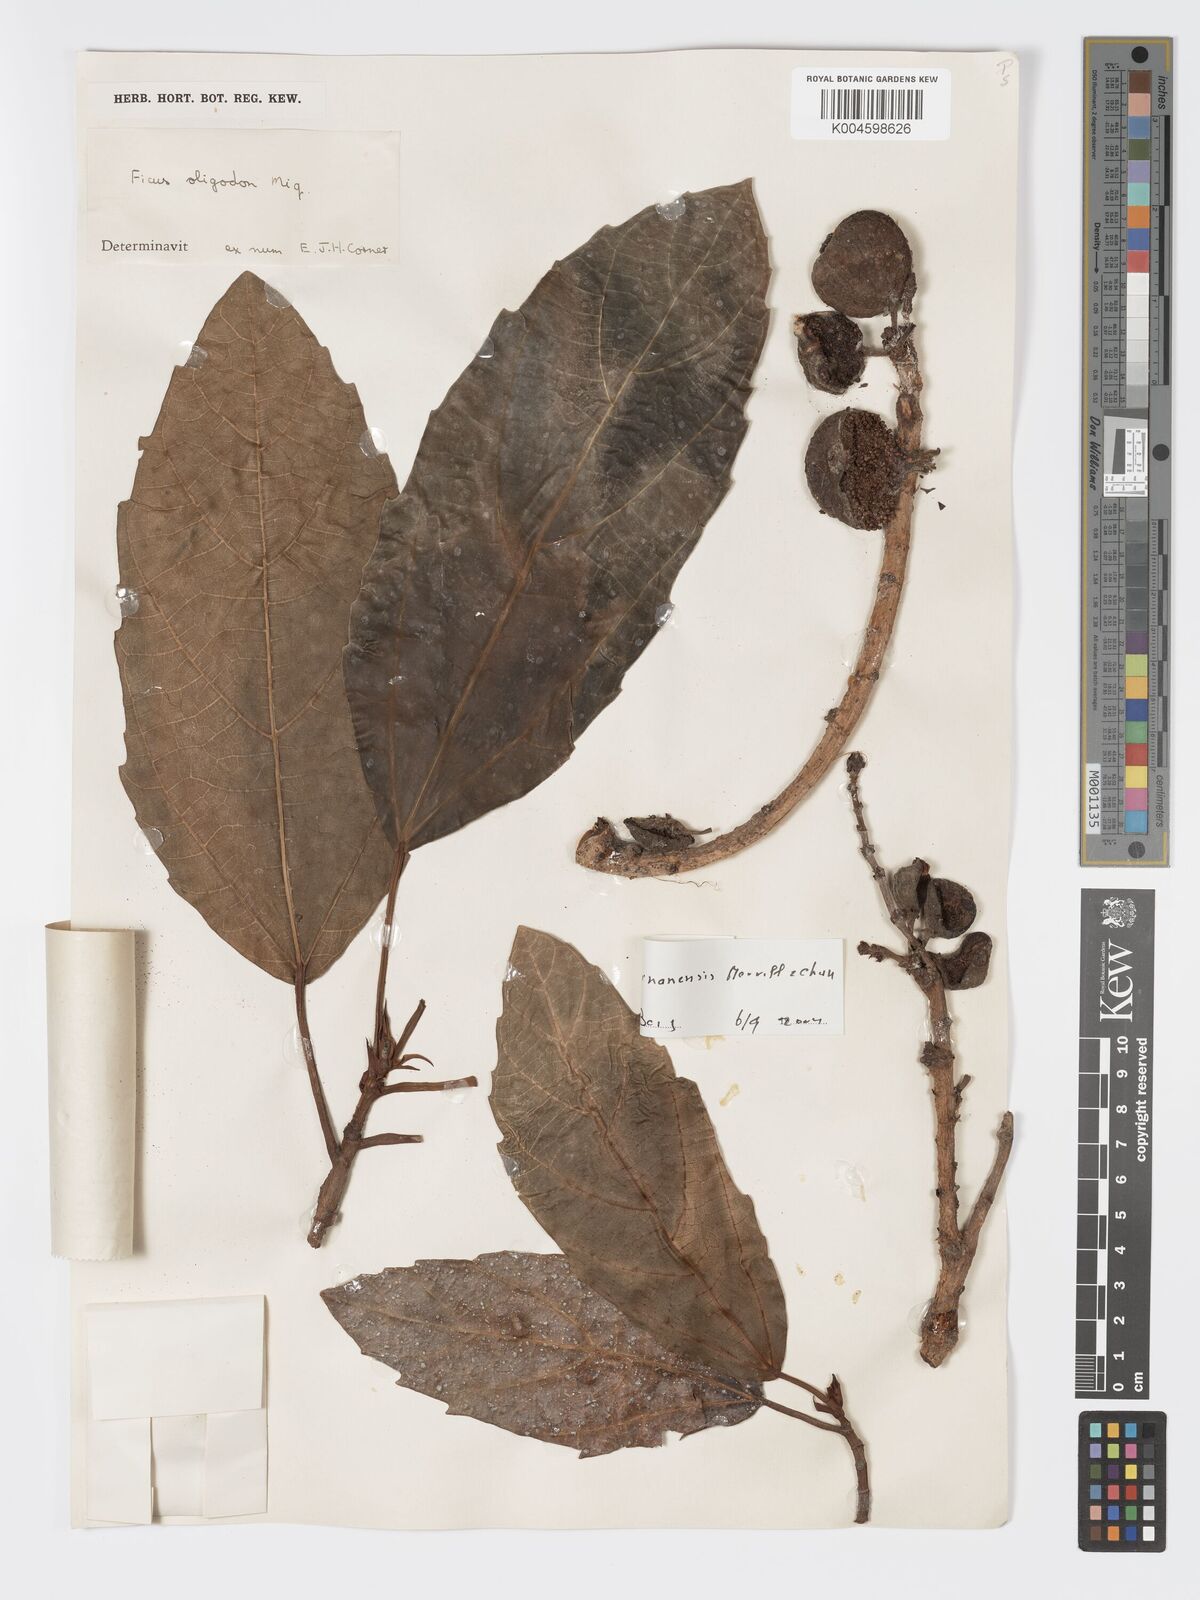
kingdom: Plantae
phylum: Tracheophyta
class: Magnoliopsida
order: Rosales
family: Moraceae
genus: Ficus
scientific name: Ficus auriculata
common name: Roxburgh fig
